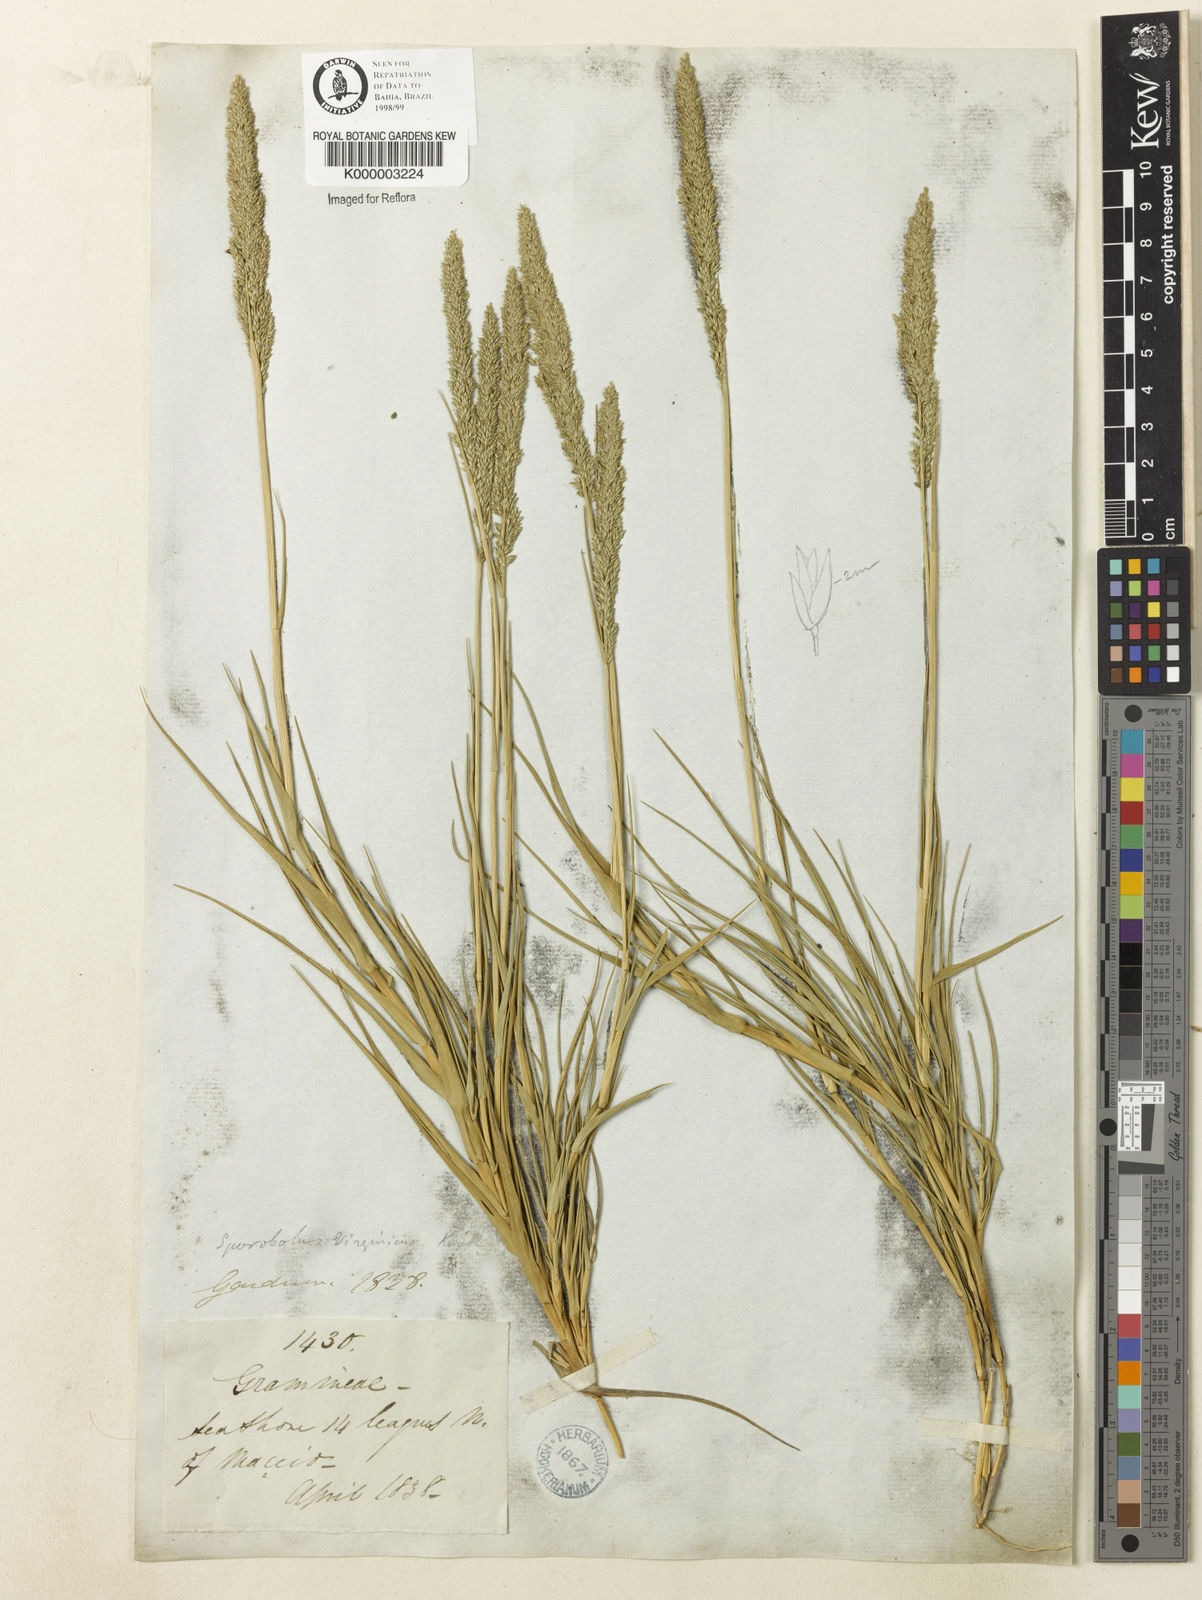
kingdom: Plantae
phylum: Tracheophyta
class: Liliopsida
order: Poales
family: Poaceae
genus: Sporobolus
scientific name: Sporobolus virginicus
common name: Beach dropseed
